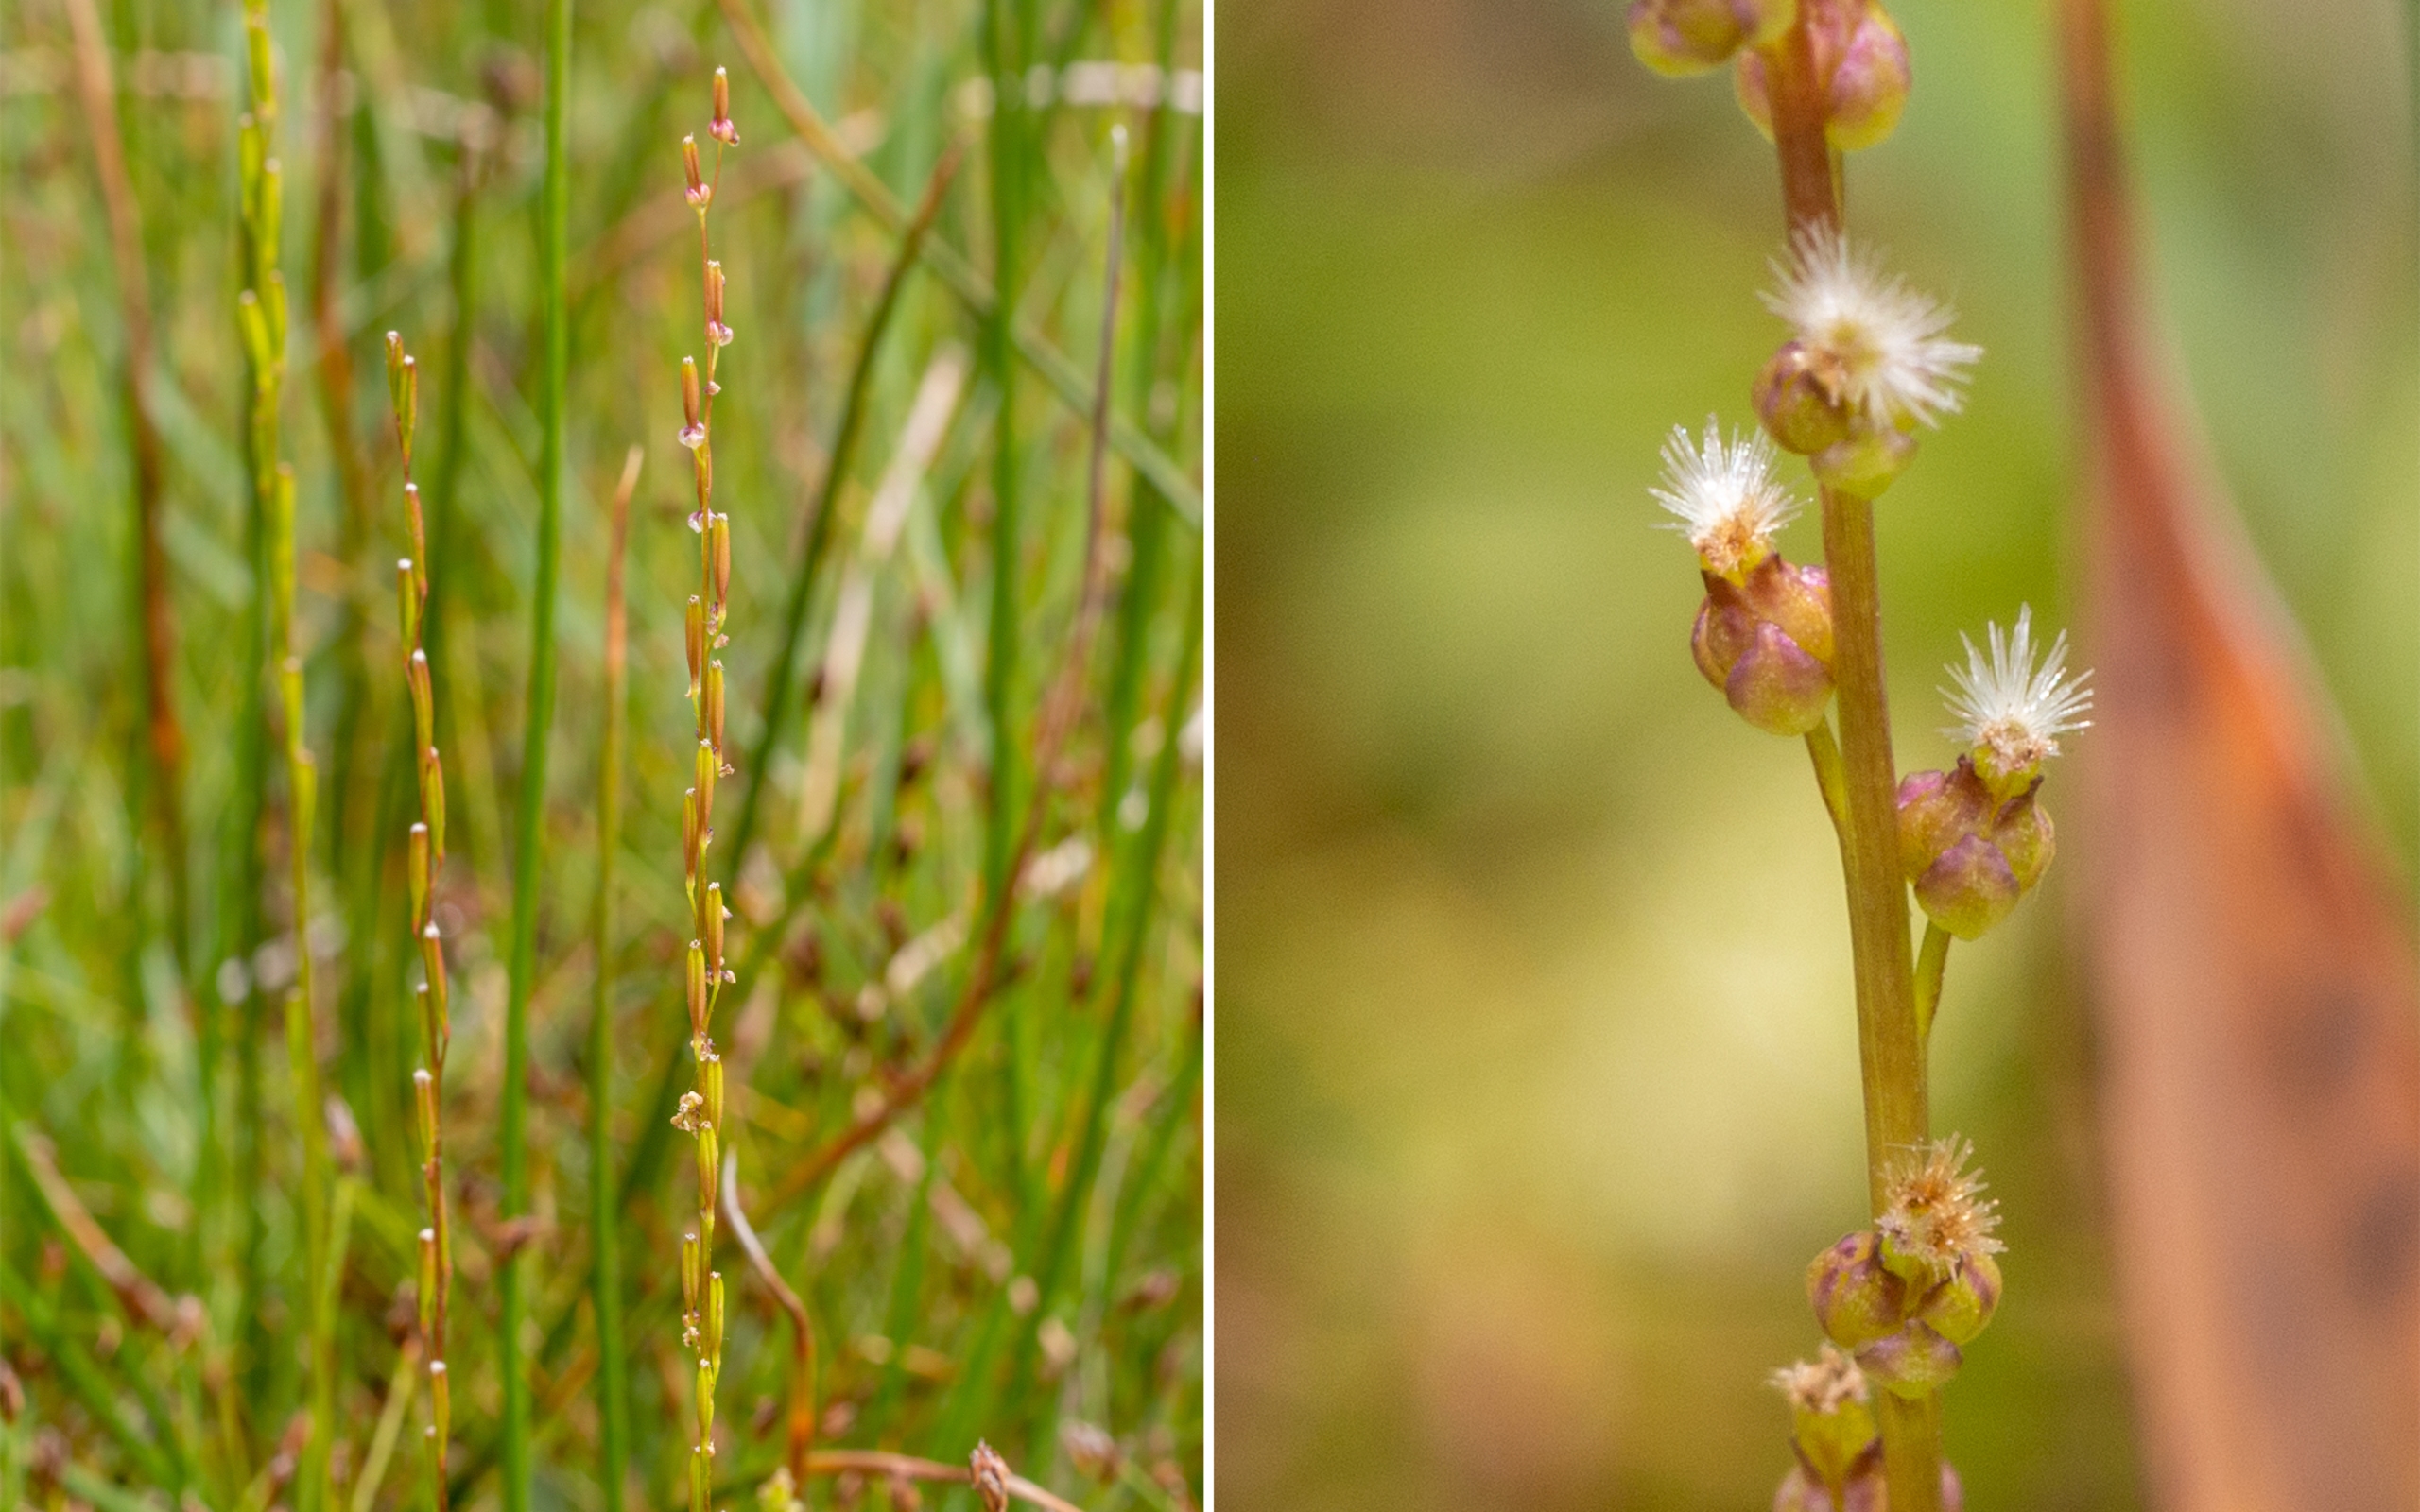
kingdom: Plantae
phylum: Tracheophyta
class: Liliopsida
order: Alismatales
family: Juncaginaceae
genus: Triglochin
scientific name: Triglochin palustris
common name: Kær-trehage
